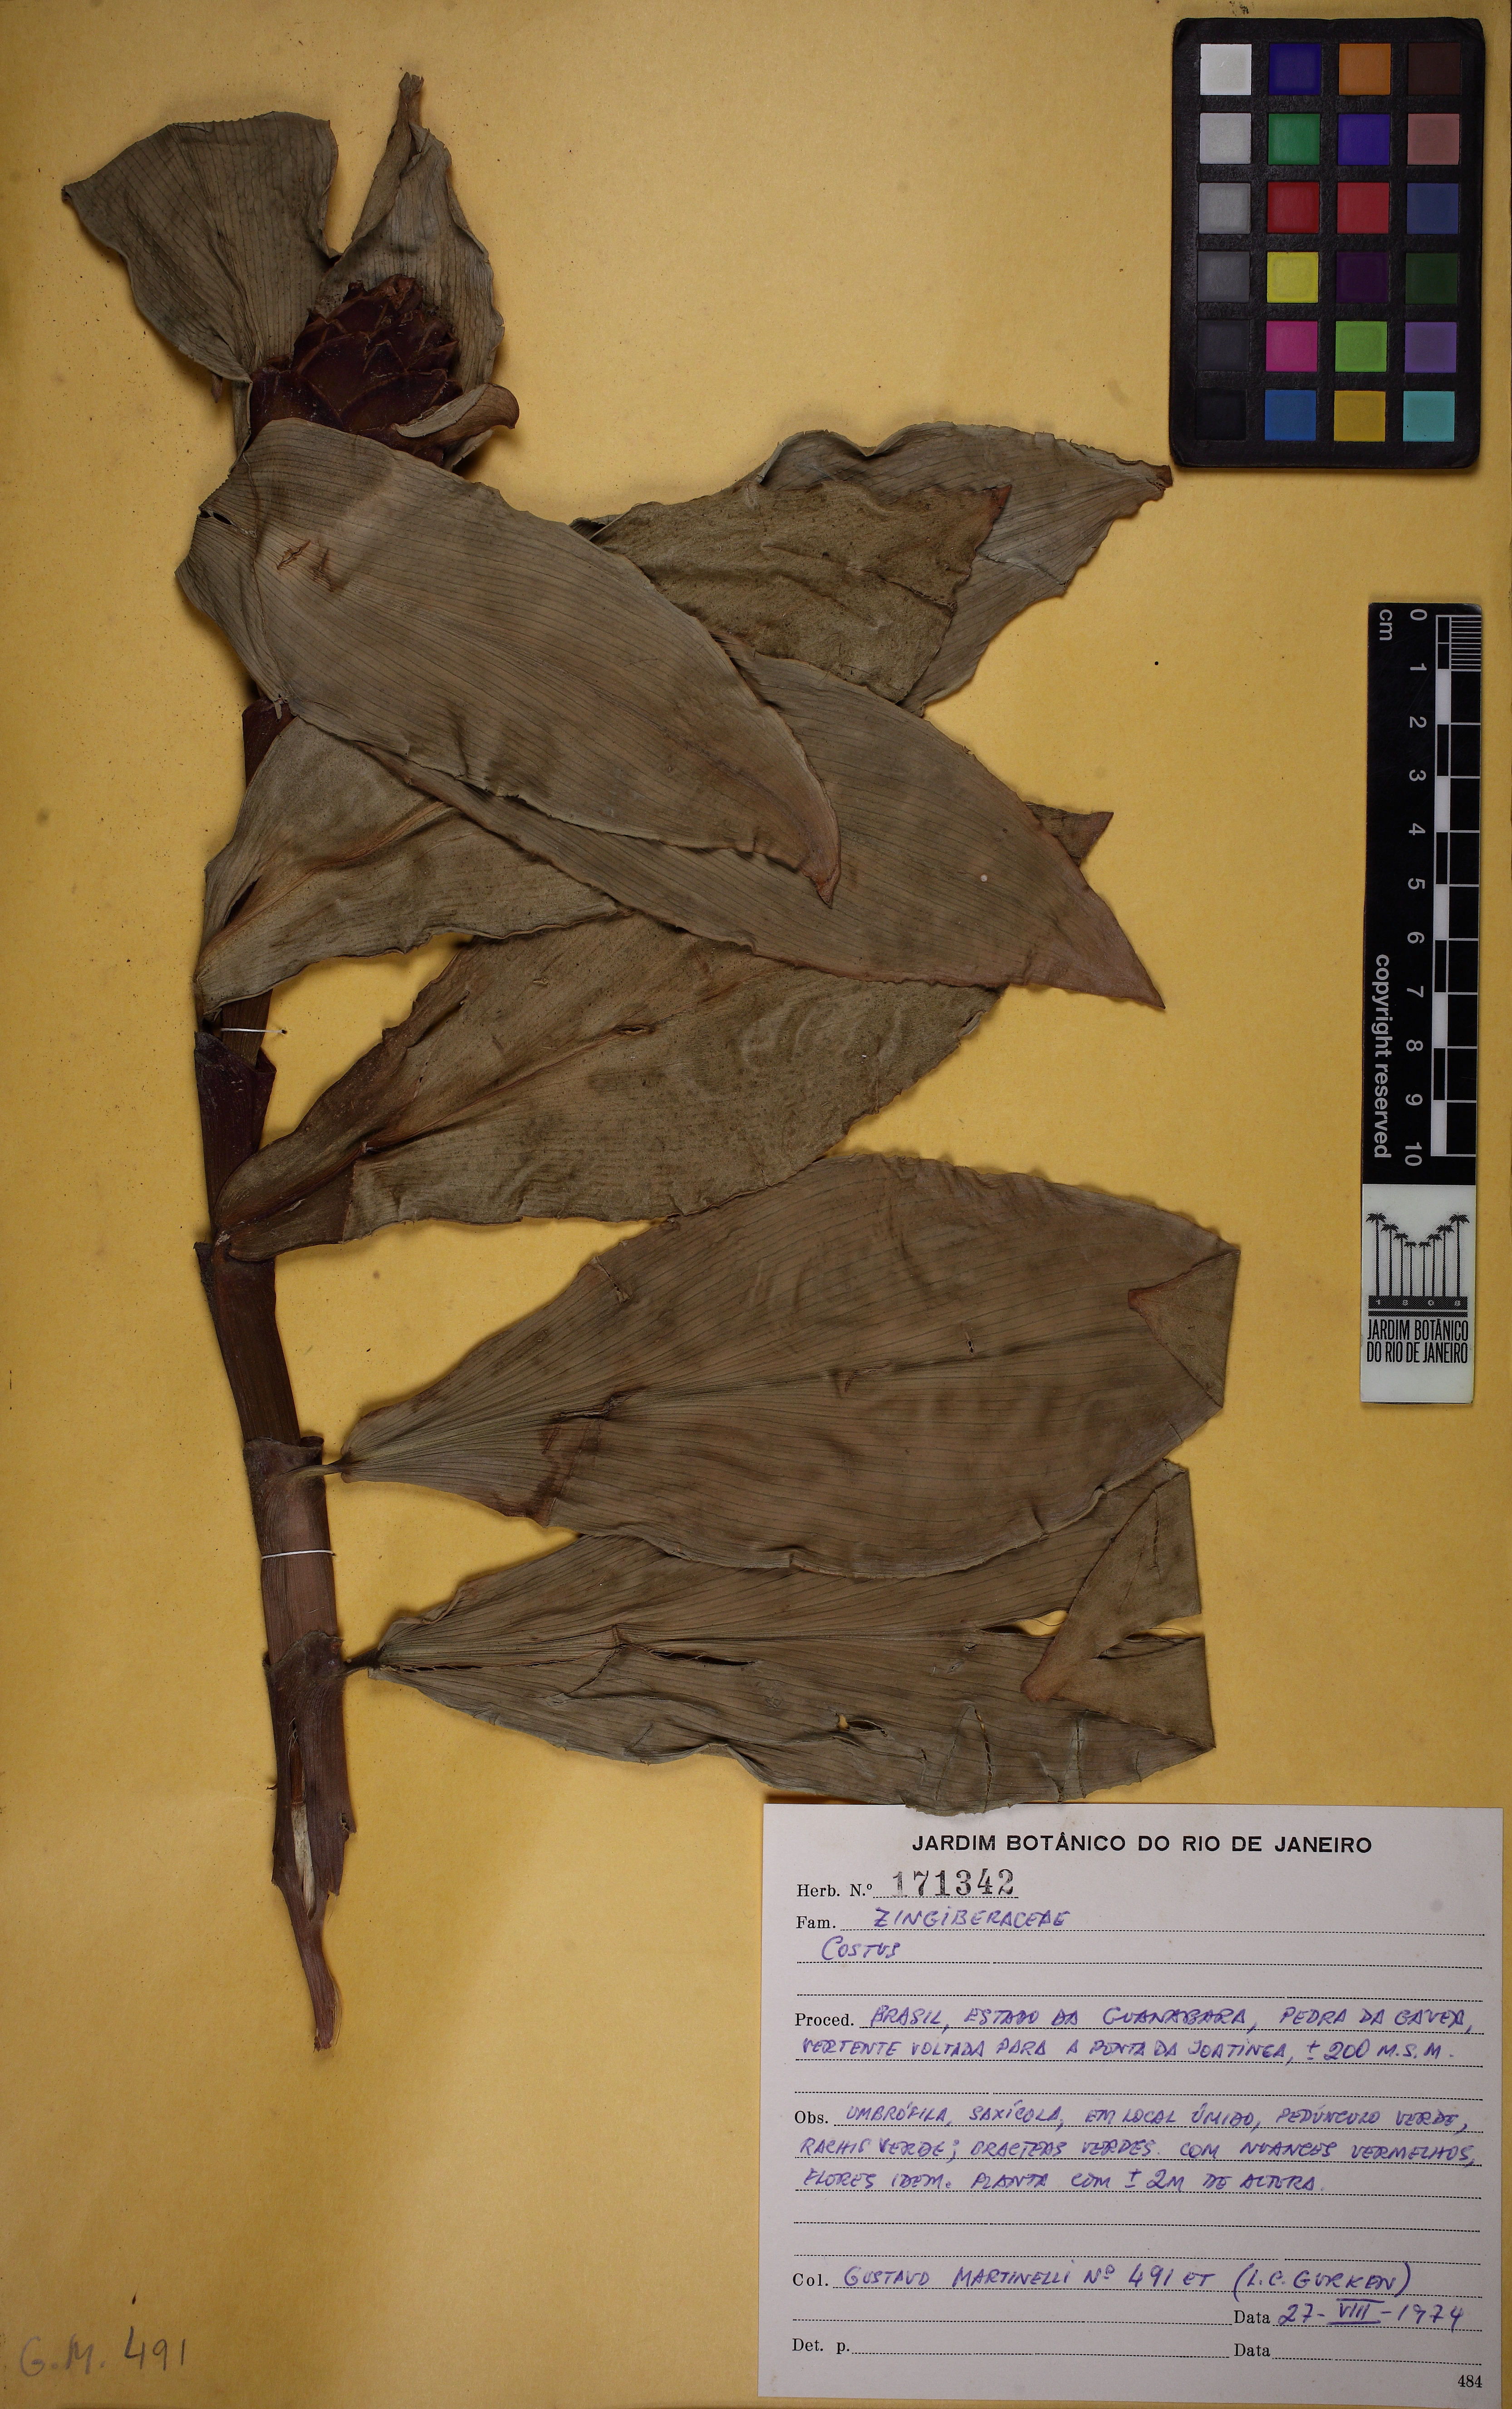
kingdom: Plantae
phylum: Tracheophyta
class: Liliopsida
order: Zingiberales
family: Costaceae
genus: Costus
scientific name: Costus arabicus
